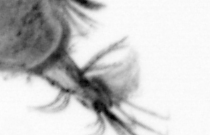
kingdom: Animalia
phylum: Chordata
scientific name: Chordata
